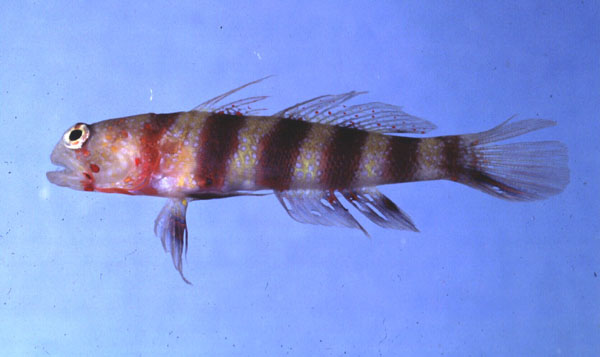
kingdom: Animalia
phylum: Chordata
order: Perciformes
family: Gobiidae
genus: Amblyeleotris
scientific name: Amblyeleotris wheeleri
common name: Gorgeous prawn-goby
